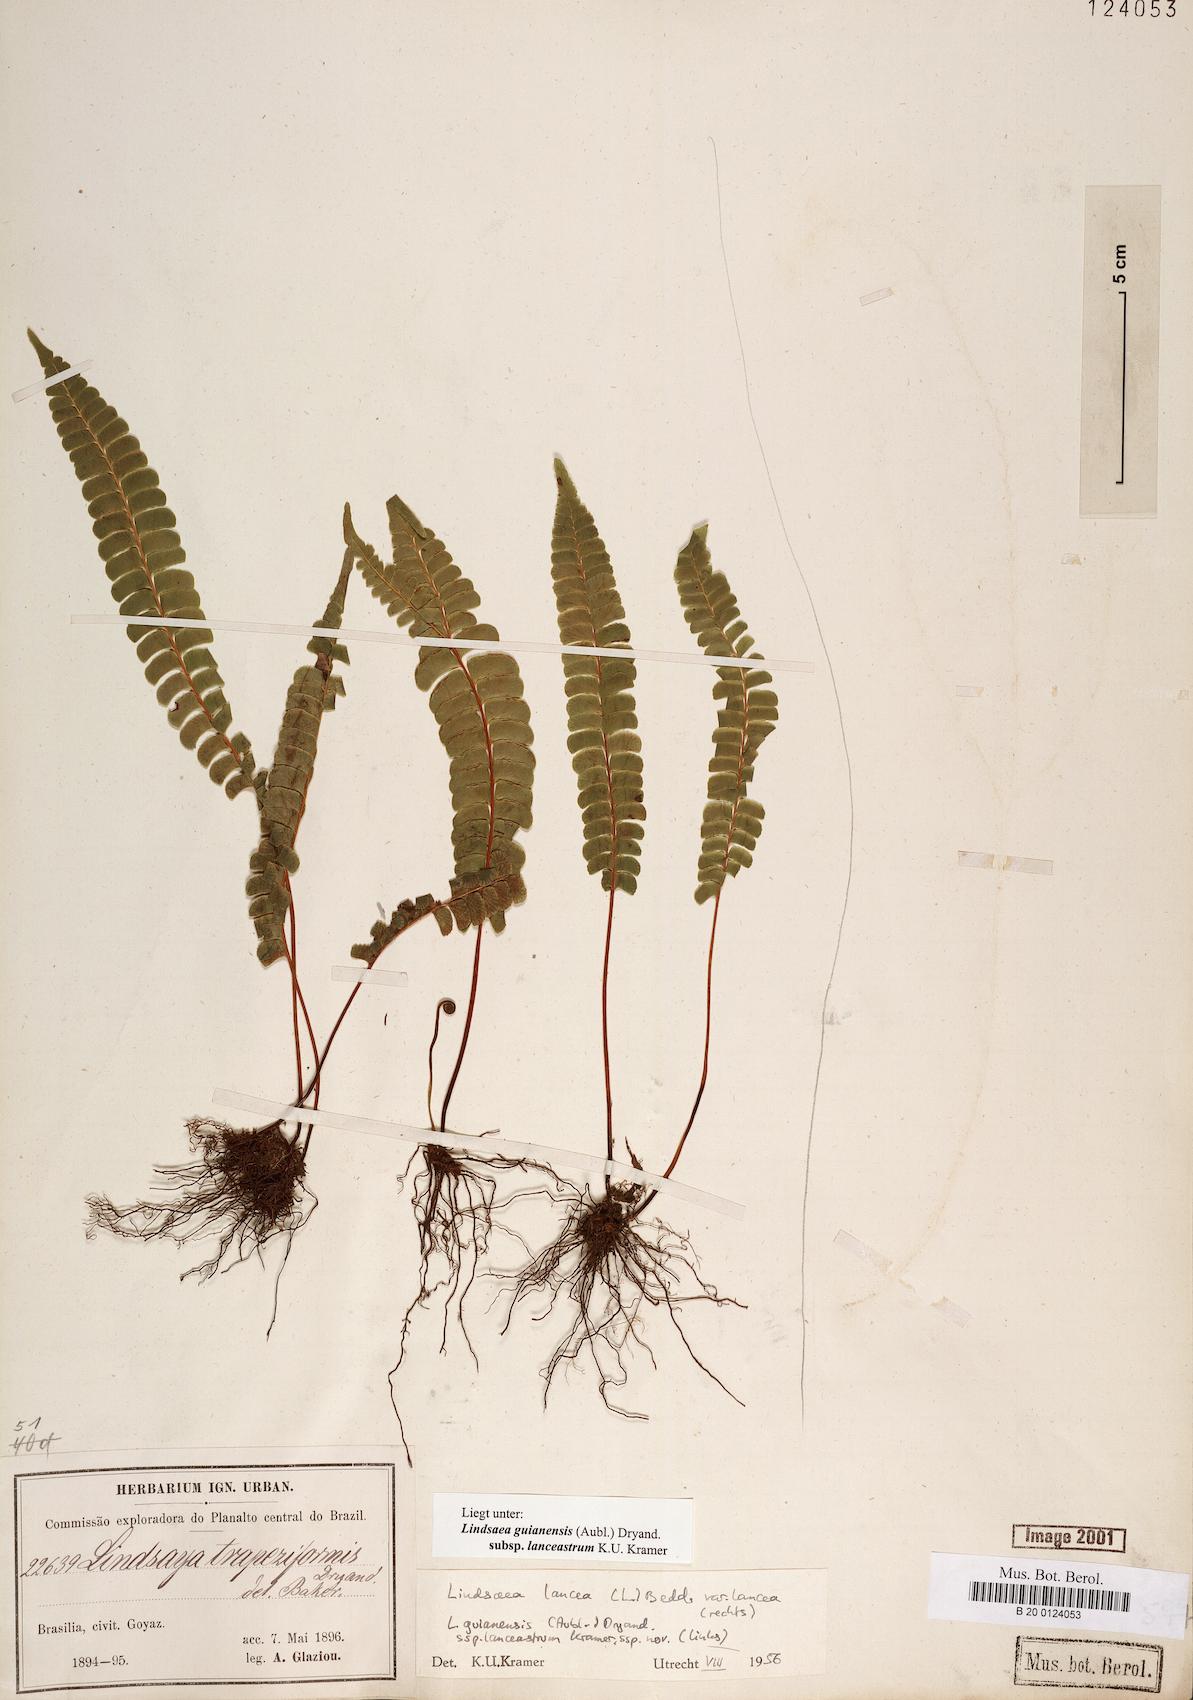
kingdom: Plantae
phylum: Tracheophyta
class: Polypodiopsida
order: Polypodiales
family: Lindsaeaceae
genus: Lindsaea
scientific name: Lindsaea guianensis
